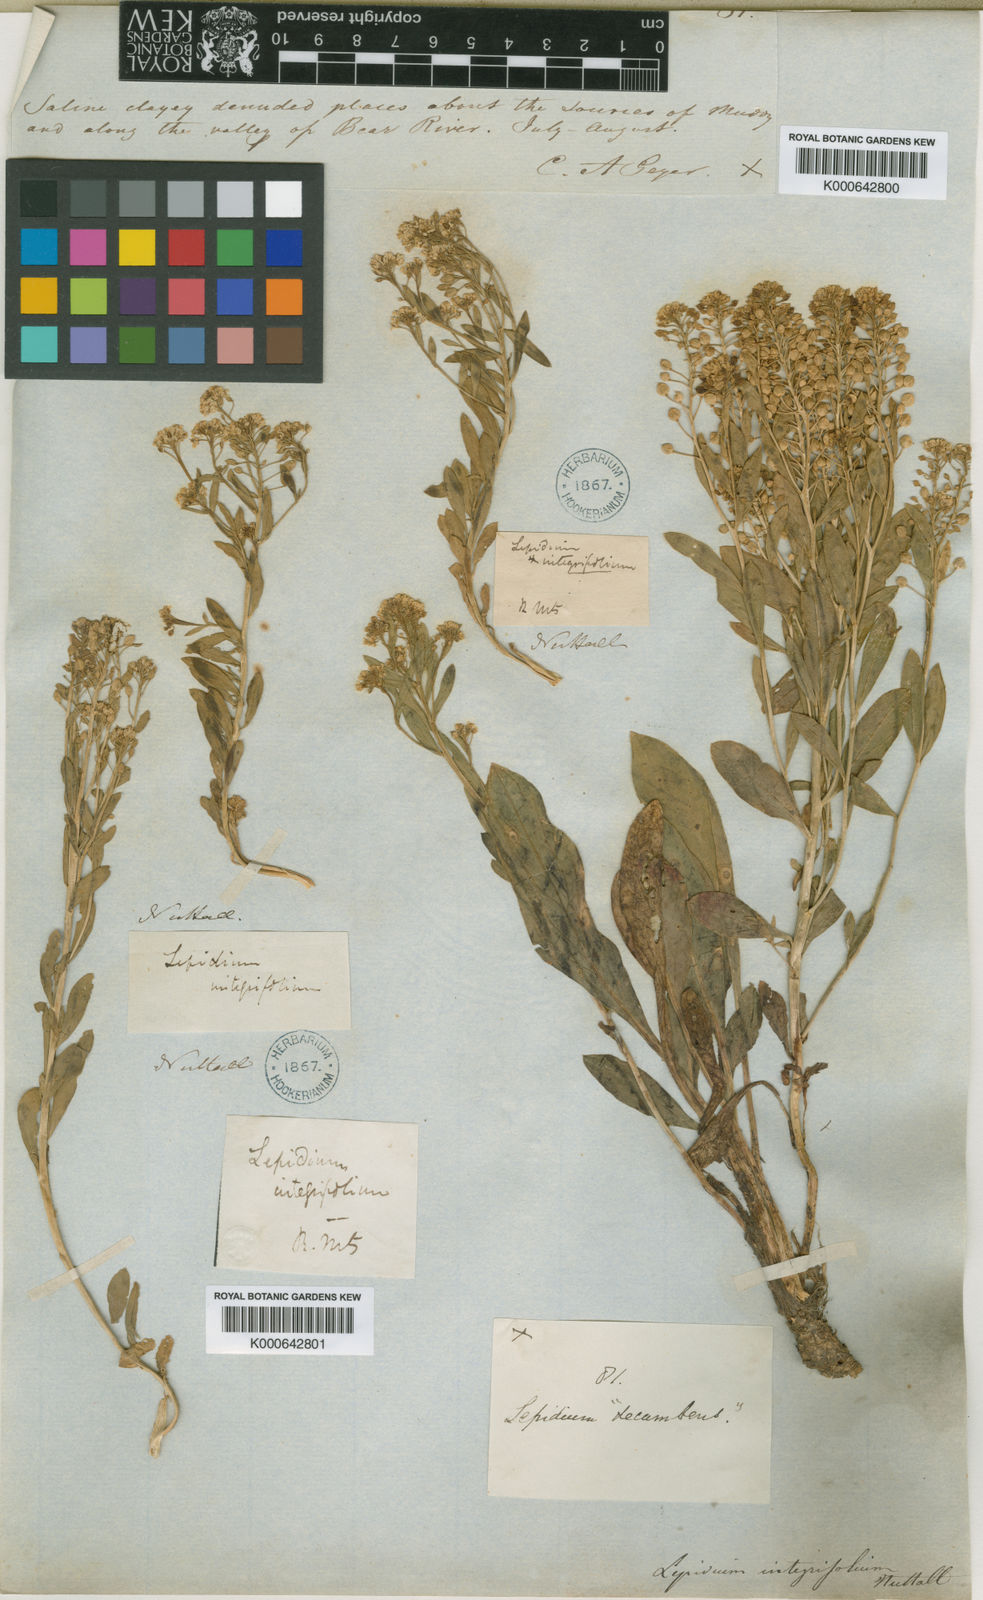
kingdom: Plantae
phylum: Tracheophyta
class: Magnoliopsida
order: Brassicales
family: Brassicaceae
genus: Lepidium
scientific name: Lepidium integrifolium
